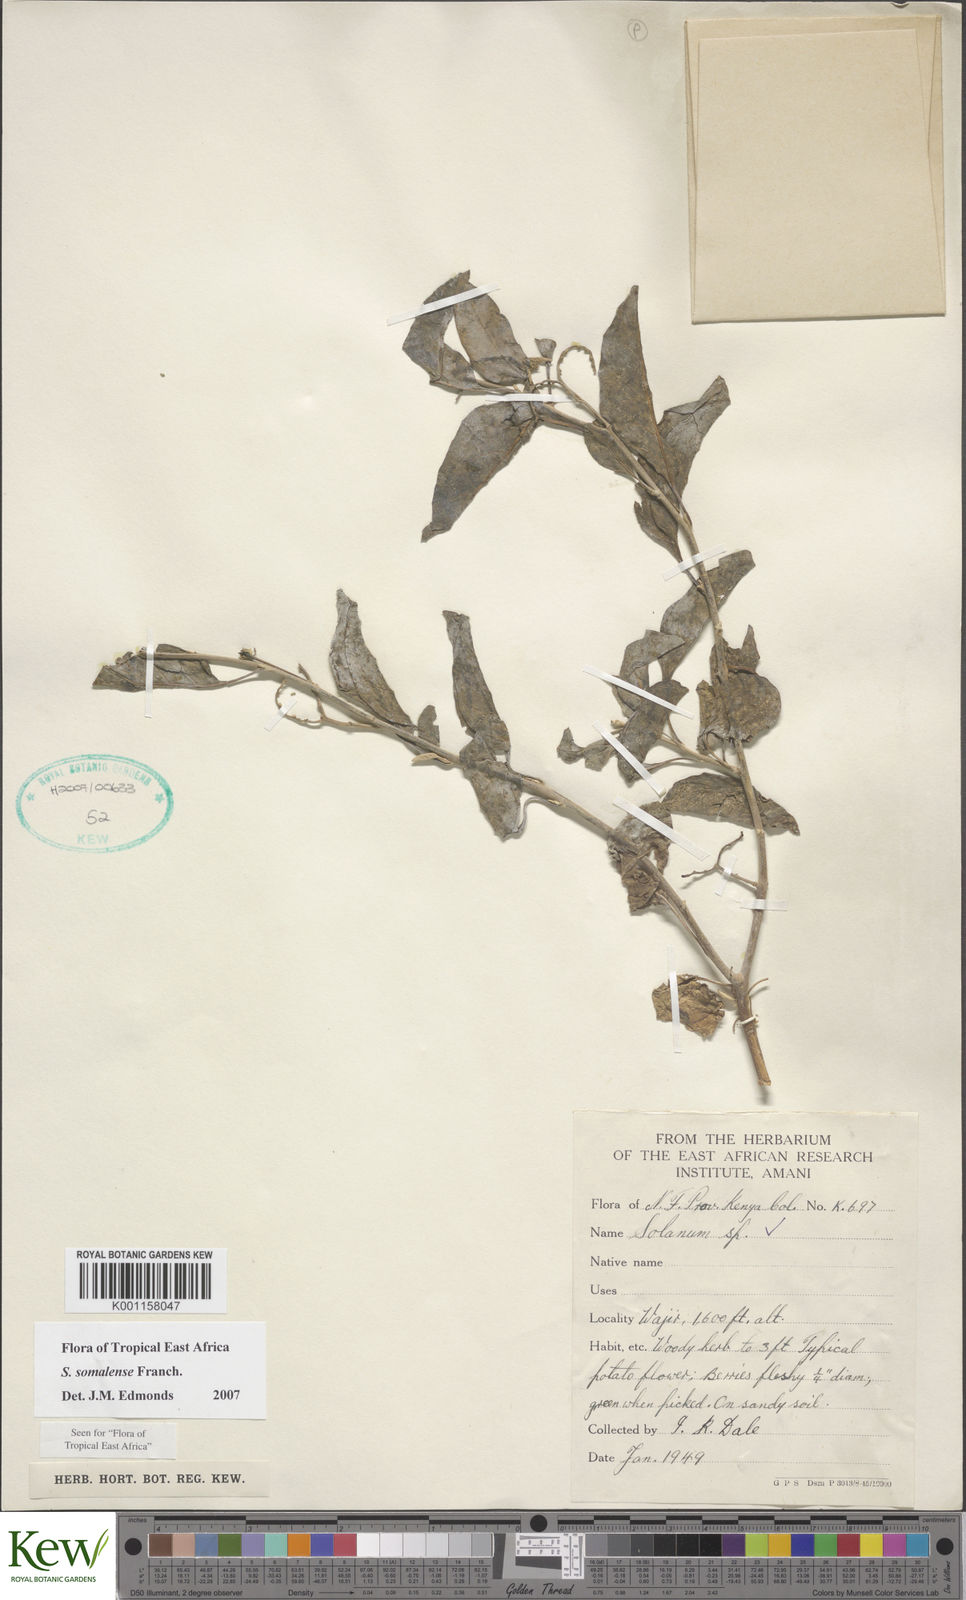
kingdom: Plantae
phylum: Tracheophyta
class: Magnoliopsida
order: Solanales
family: Solanaceae
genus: Solanum
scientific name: Solanum somalense
